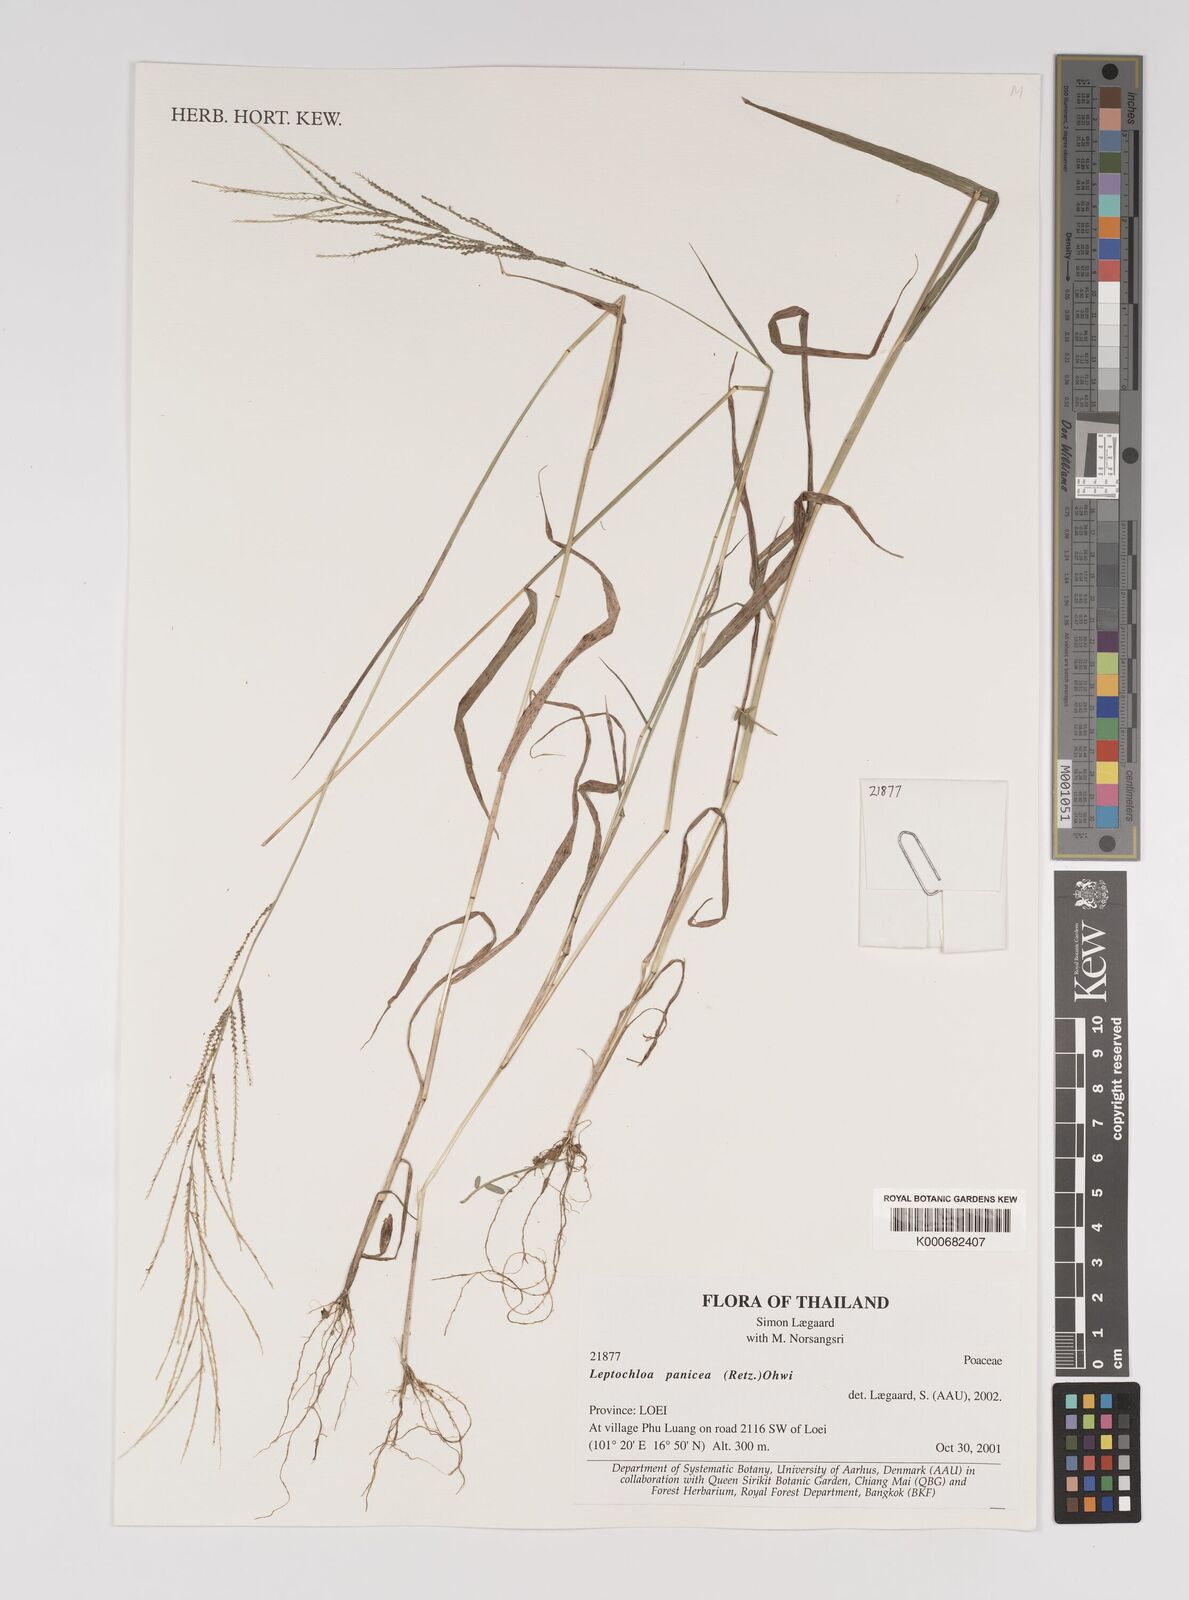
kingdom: Plantae
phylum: Tracheophyta
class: Liliopsida
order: Poales
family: Poaceae
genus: Leptochloa
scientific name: Leptochloa panicea
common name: Mucronate sprangletop
